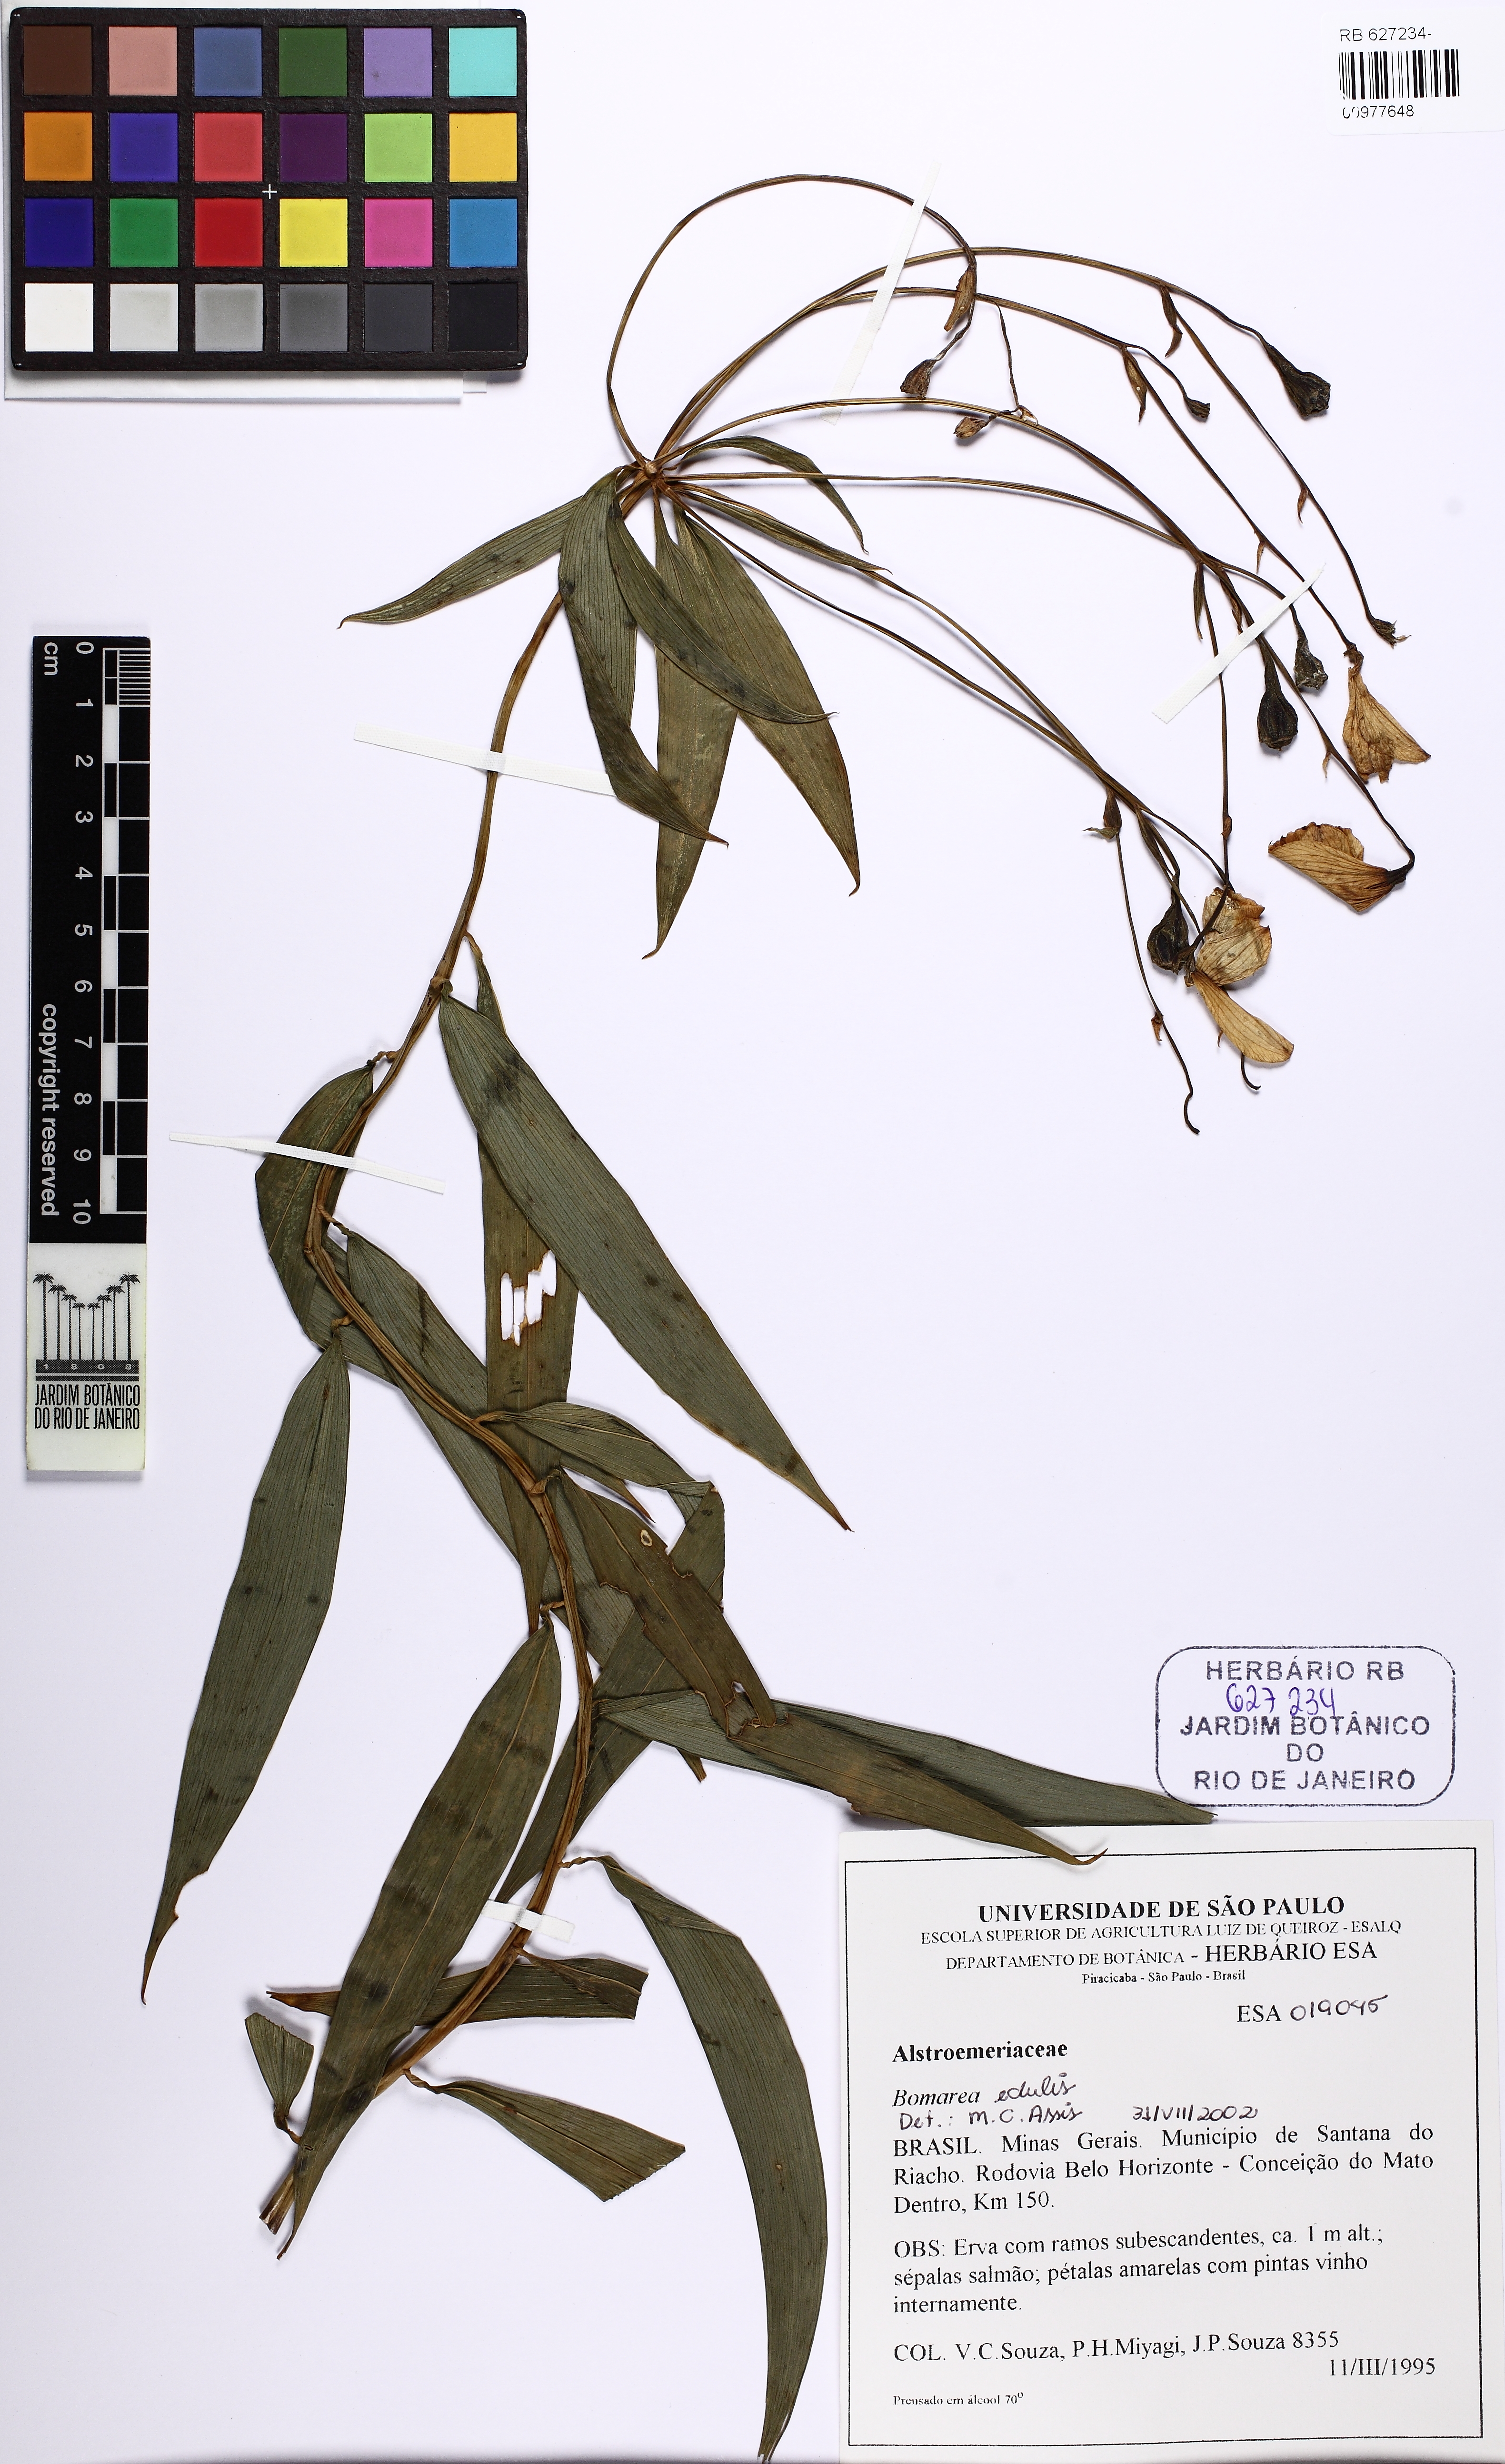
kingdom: Plantae
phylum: Tracheophyta
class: Liliopsida
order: Liliales
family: Alstroemeriaceae
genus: Bomarea
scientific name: Bomarea edulis
